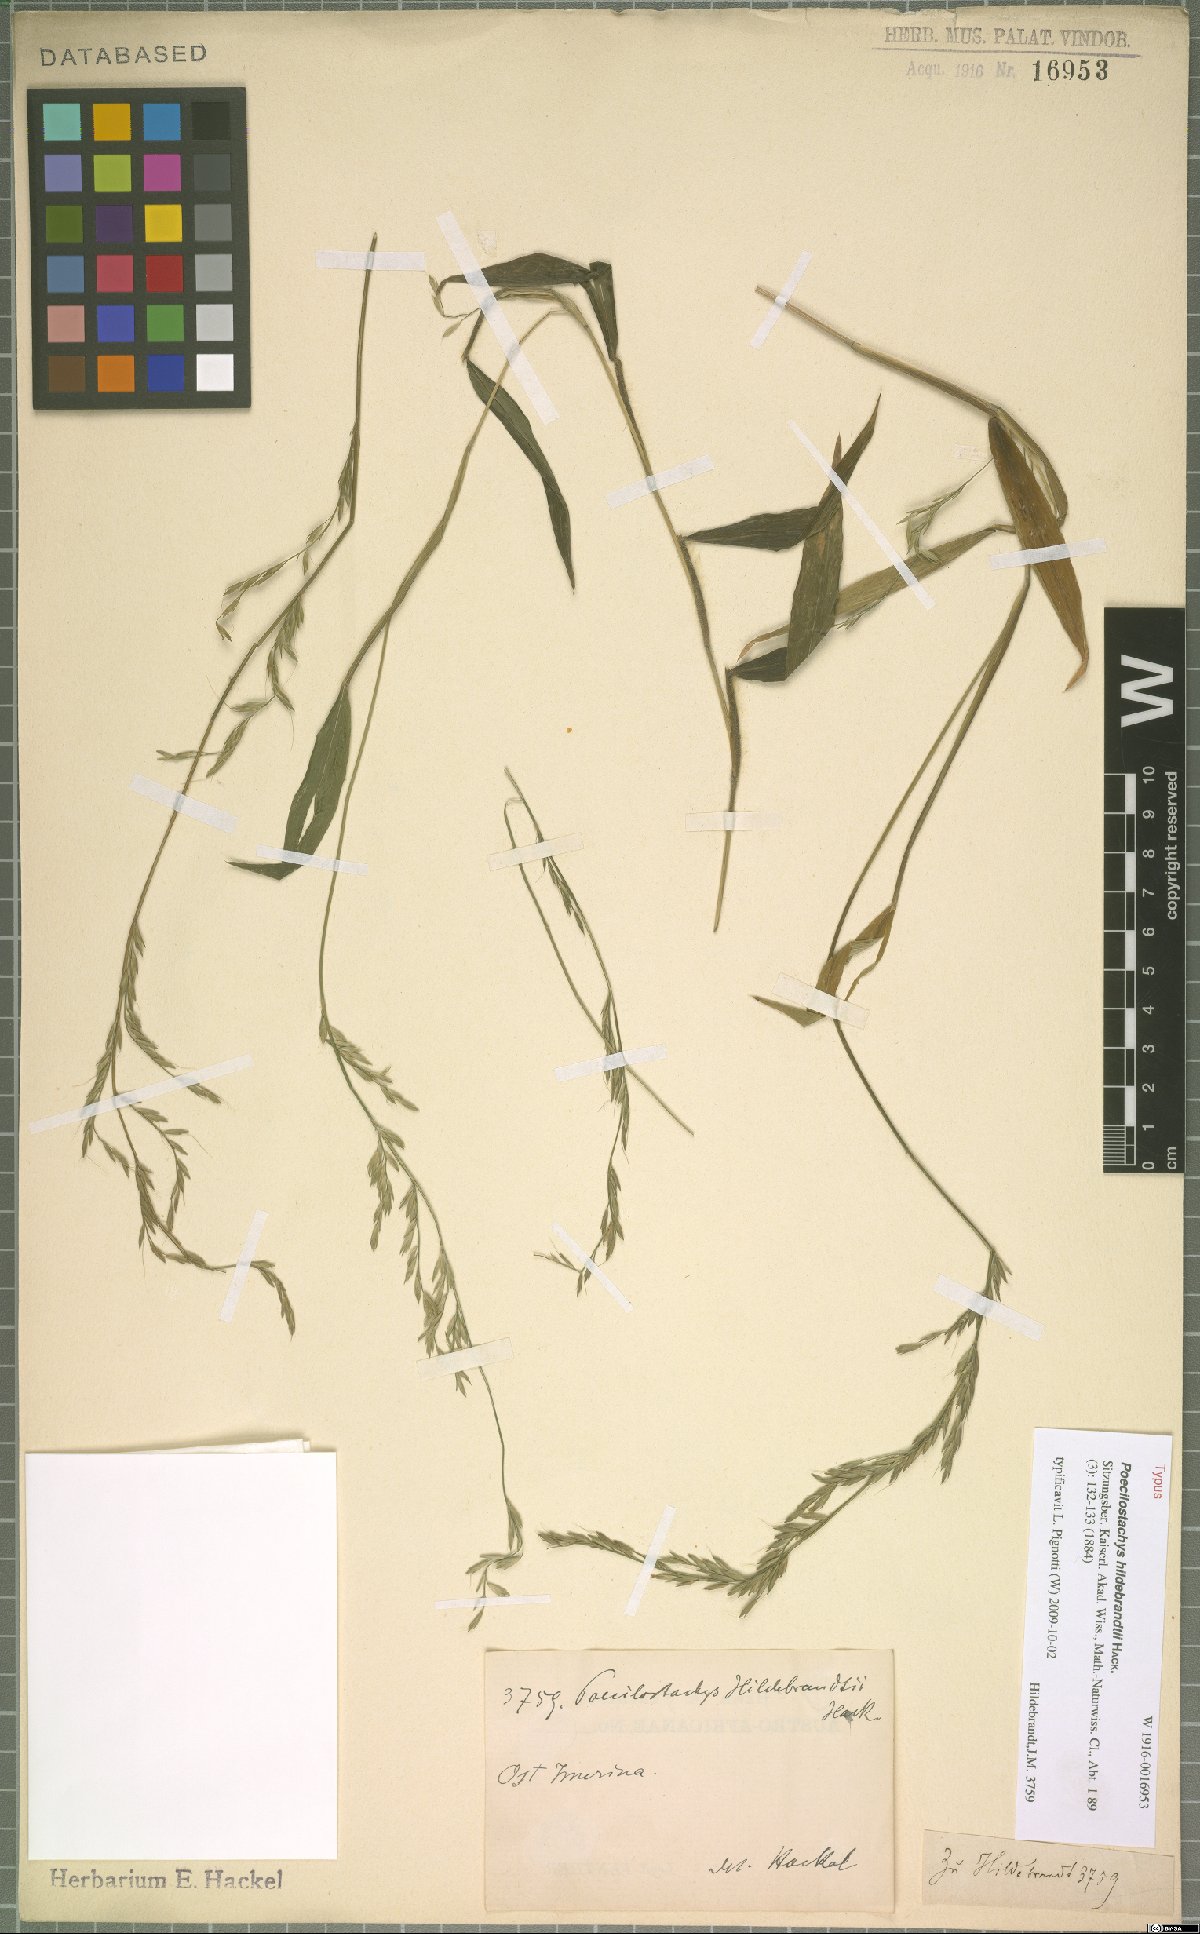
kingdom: Plantae
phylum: Tracheophyta
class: Liliopsida
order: Poales
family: Poaceae
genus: Poecilostachys
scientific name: Poecilostachys hildebrandtii
